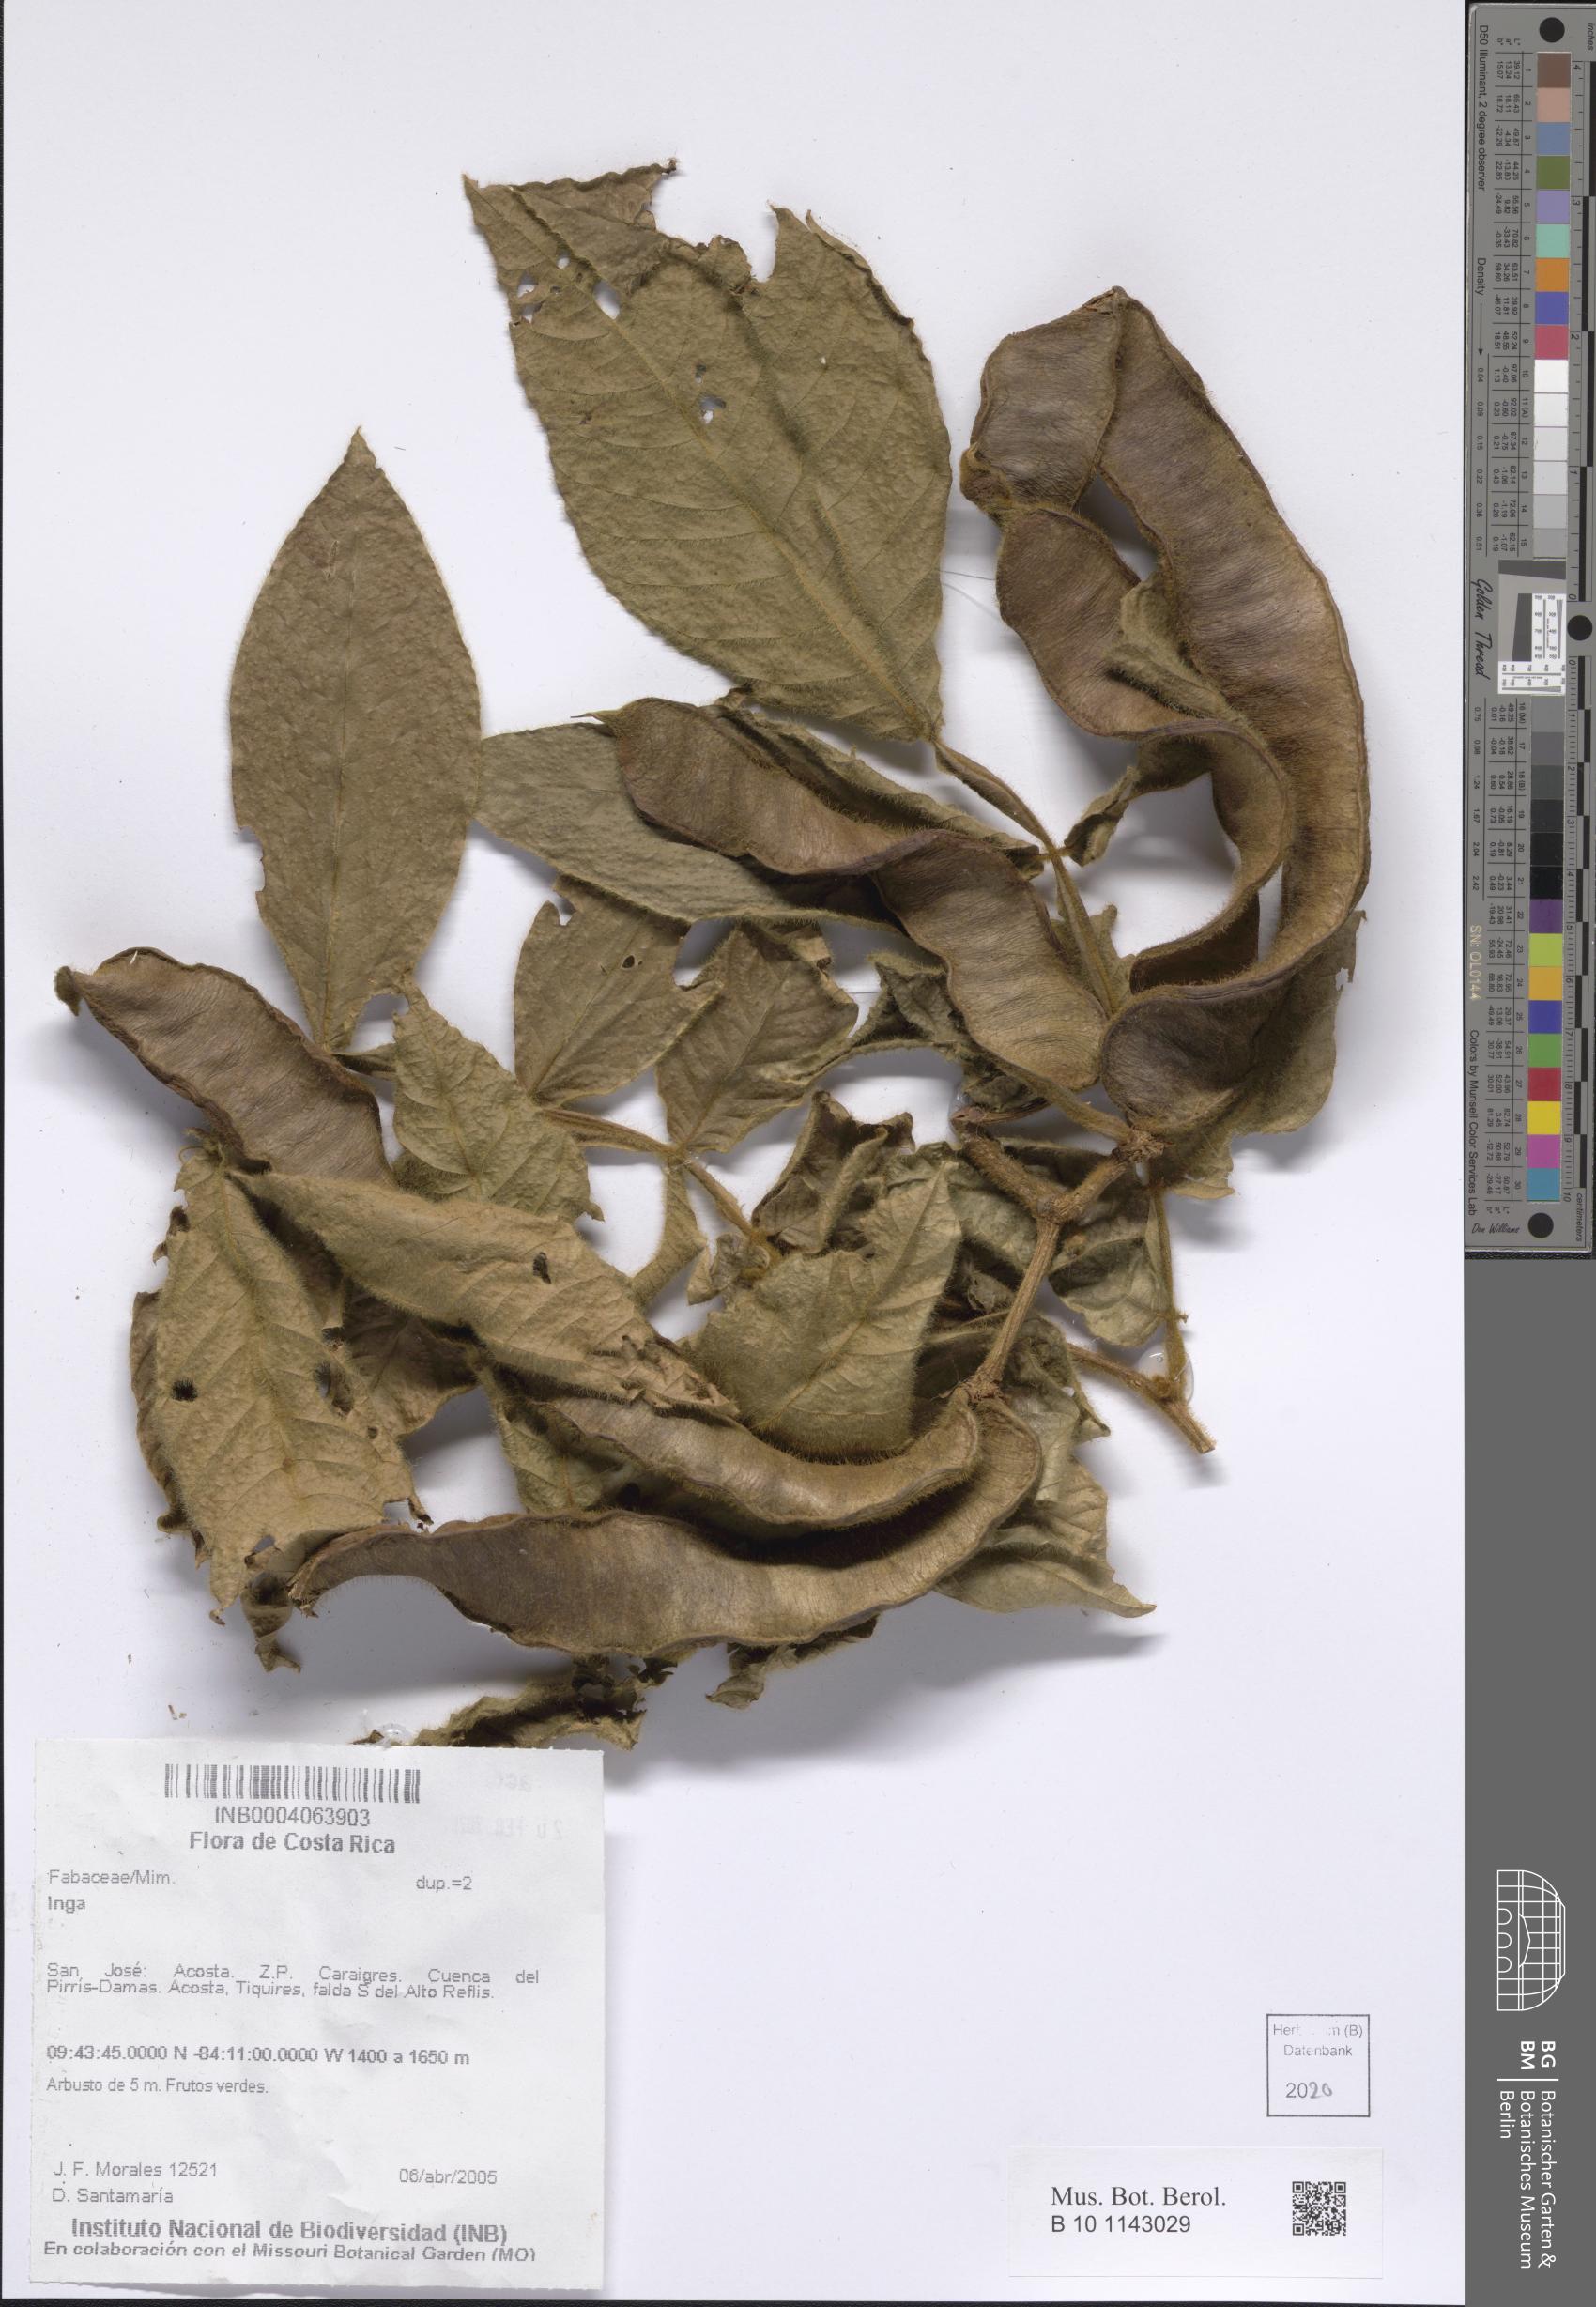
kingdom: Plantae
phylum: Tracheophyta
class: Magnoliopsida
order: Fabales
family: Fabaceae
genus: Inga
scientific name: Inga
